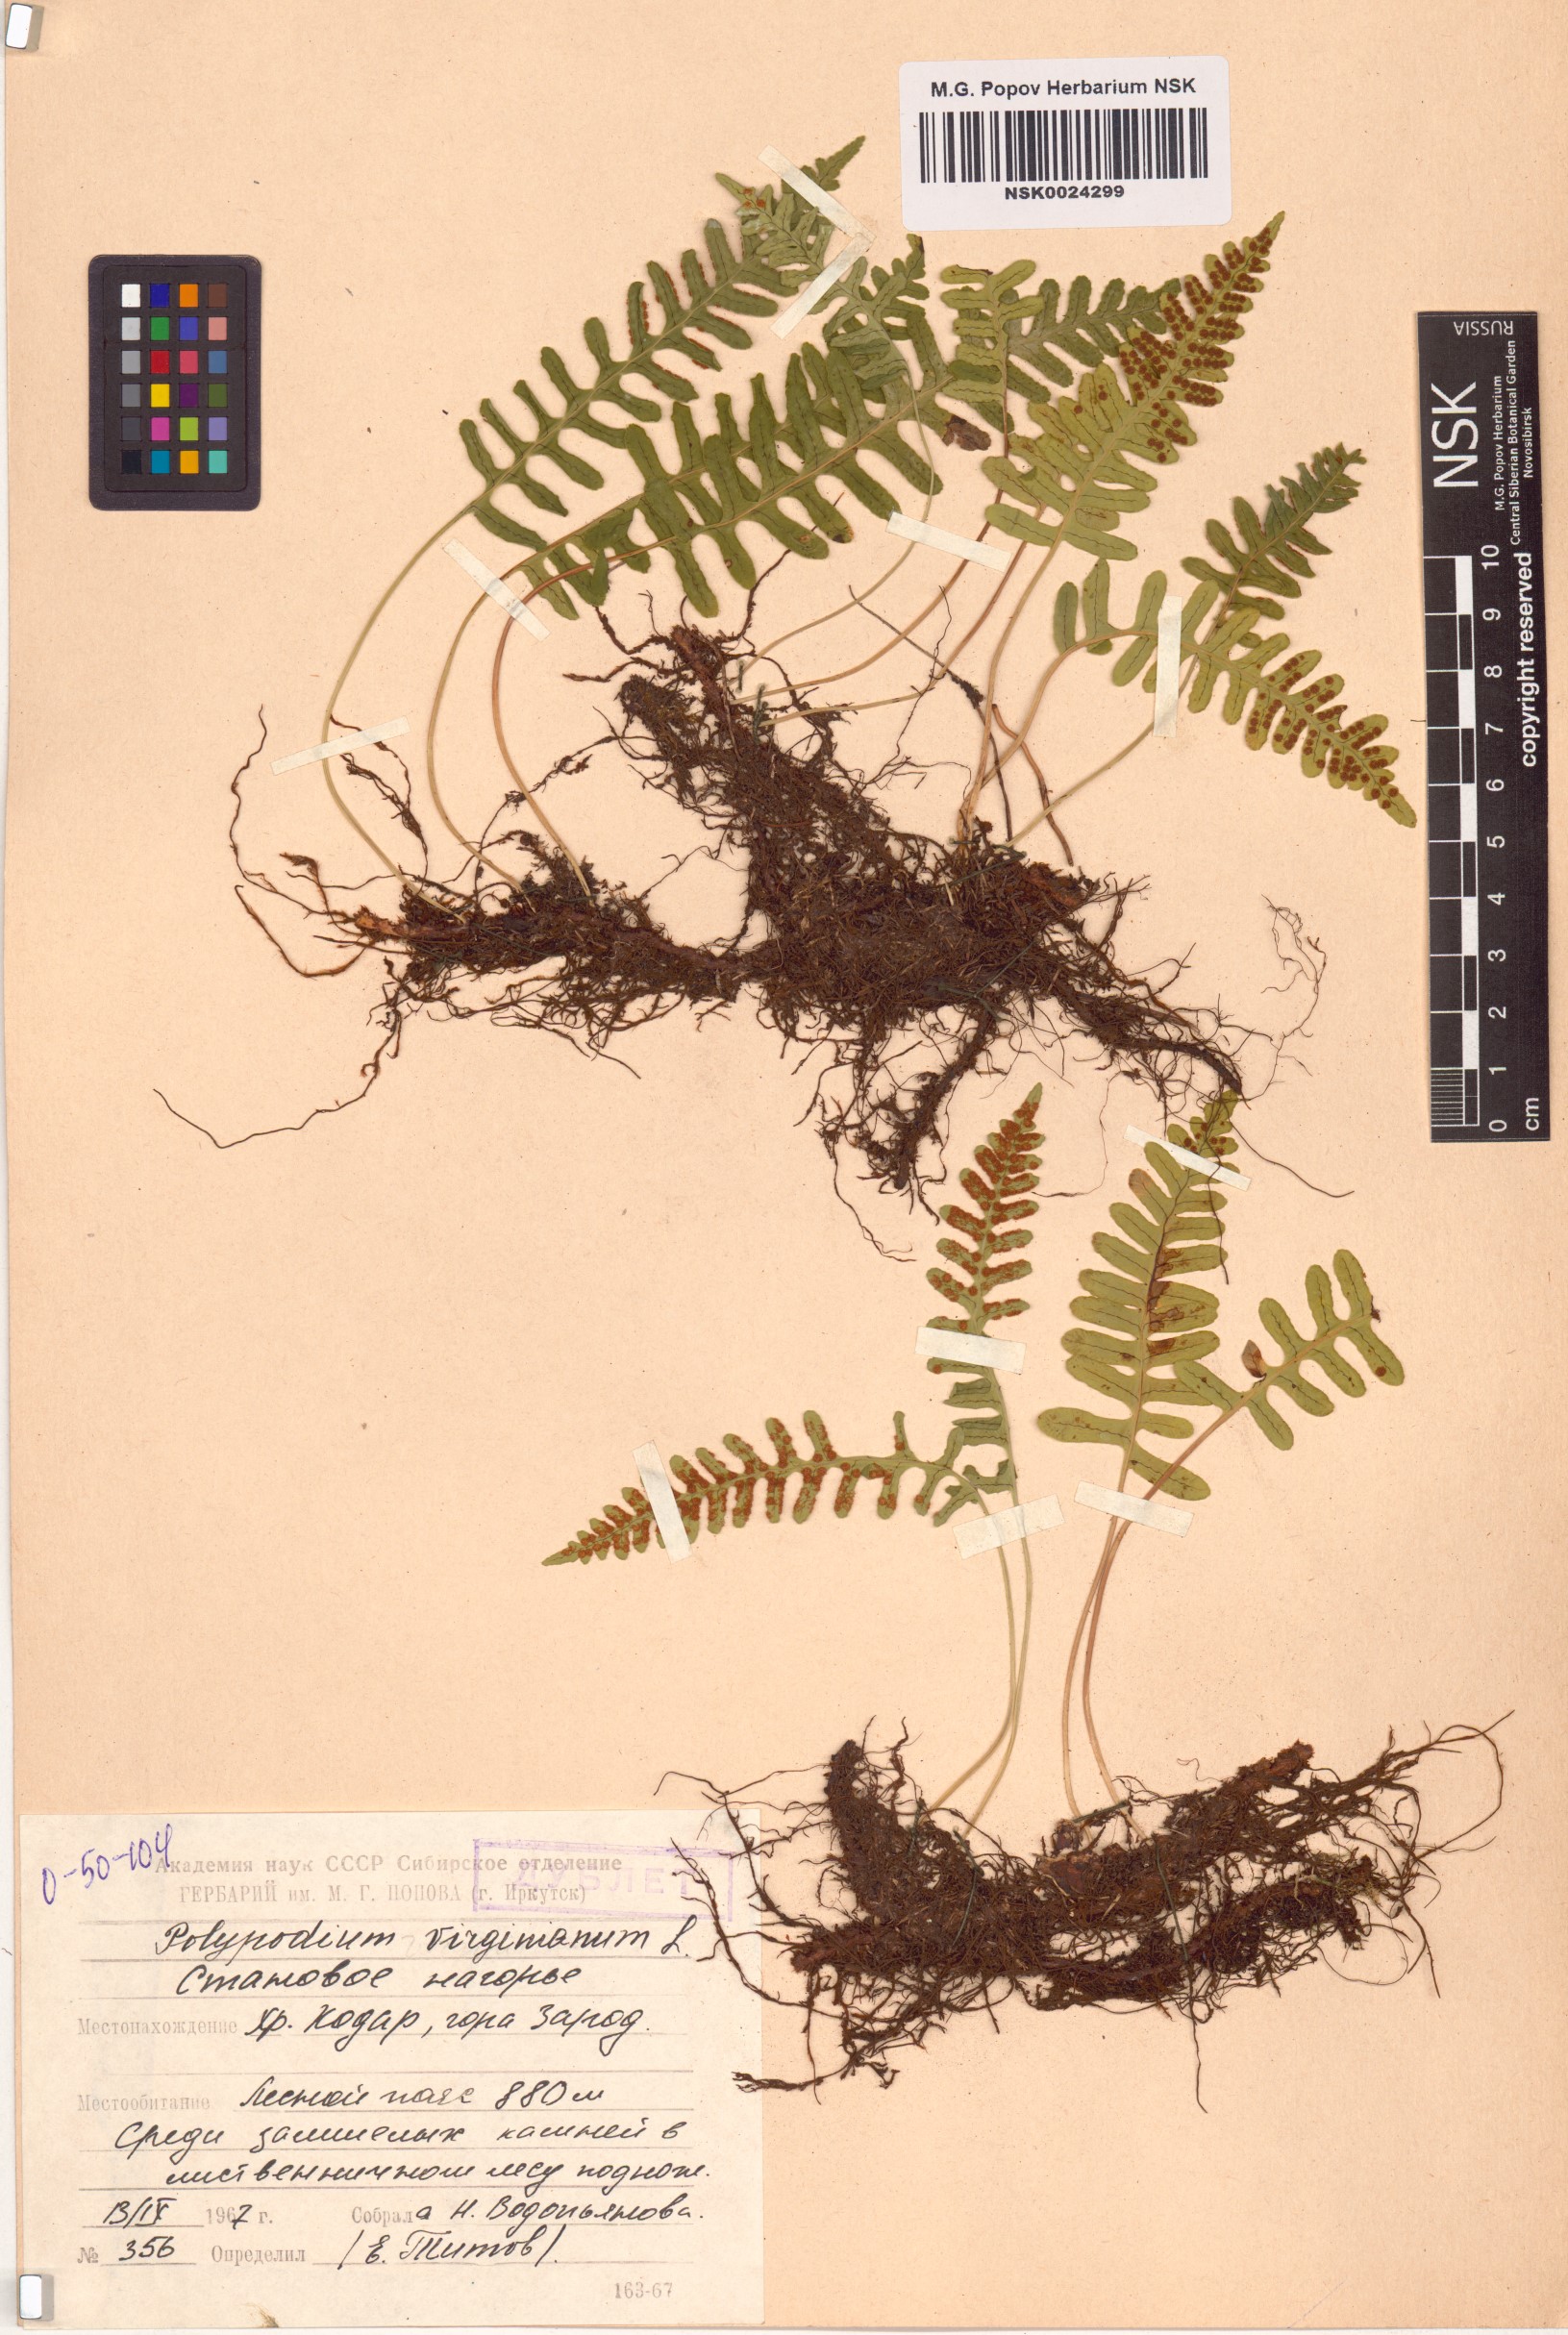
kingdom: Plantae
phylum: Tracheophyta
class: Polypodiopsida
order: Polypodiales
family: Polypodiaceae
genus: Polypodium
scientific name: Polypodium virginianum
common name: American wall fern
